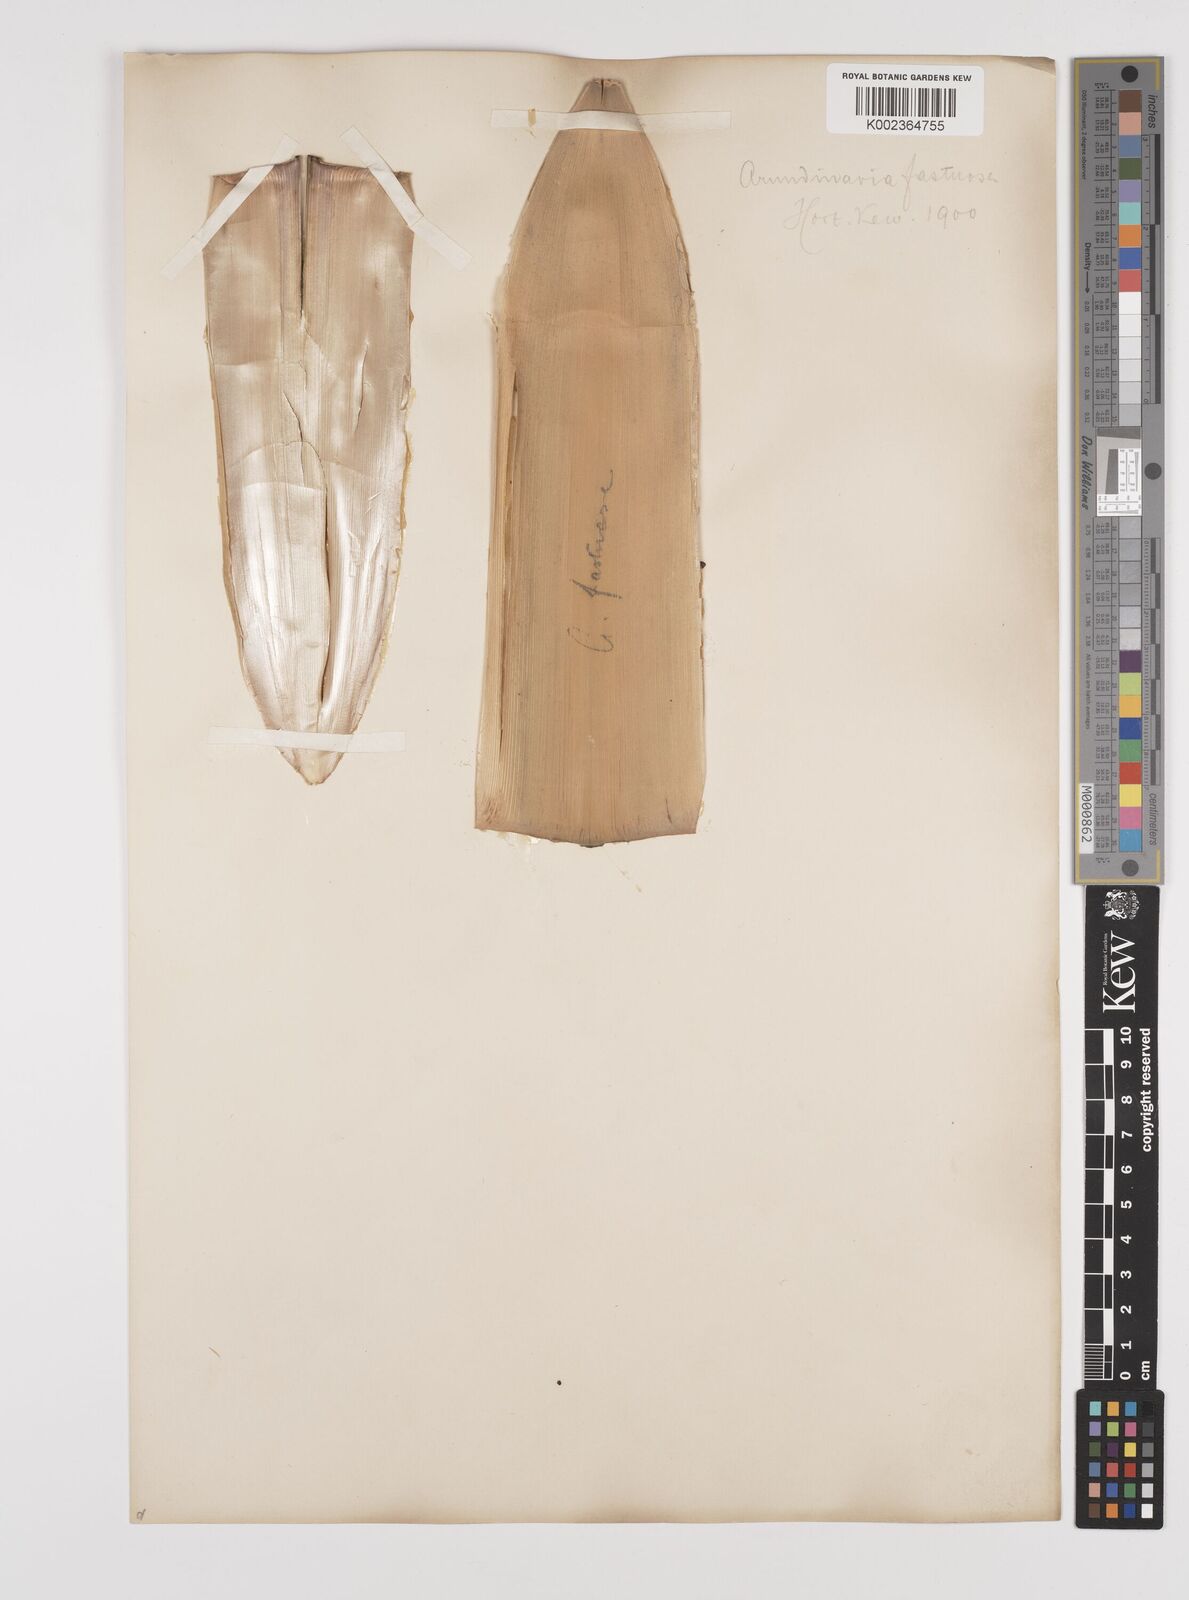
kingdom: Plantae
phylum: Tracheophyta
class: Liliopsida
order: Poales
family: Poaceae
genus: Semiarundinaria
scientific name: Semiarundinaria fastuosa
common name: Narihira bamboo
